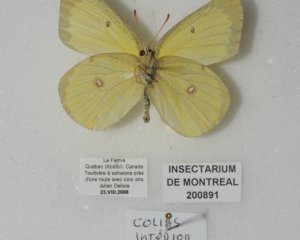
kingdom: Animalia
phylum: Arthropoda
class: Insecta
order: Lepidoptera
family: Pieridae
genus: Colias
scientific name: Colias interior
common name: Pink-edged Sulphur
